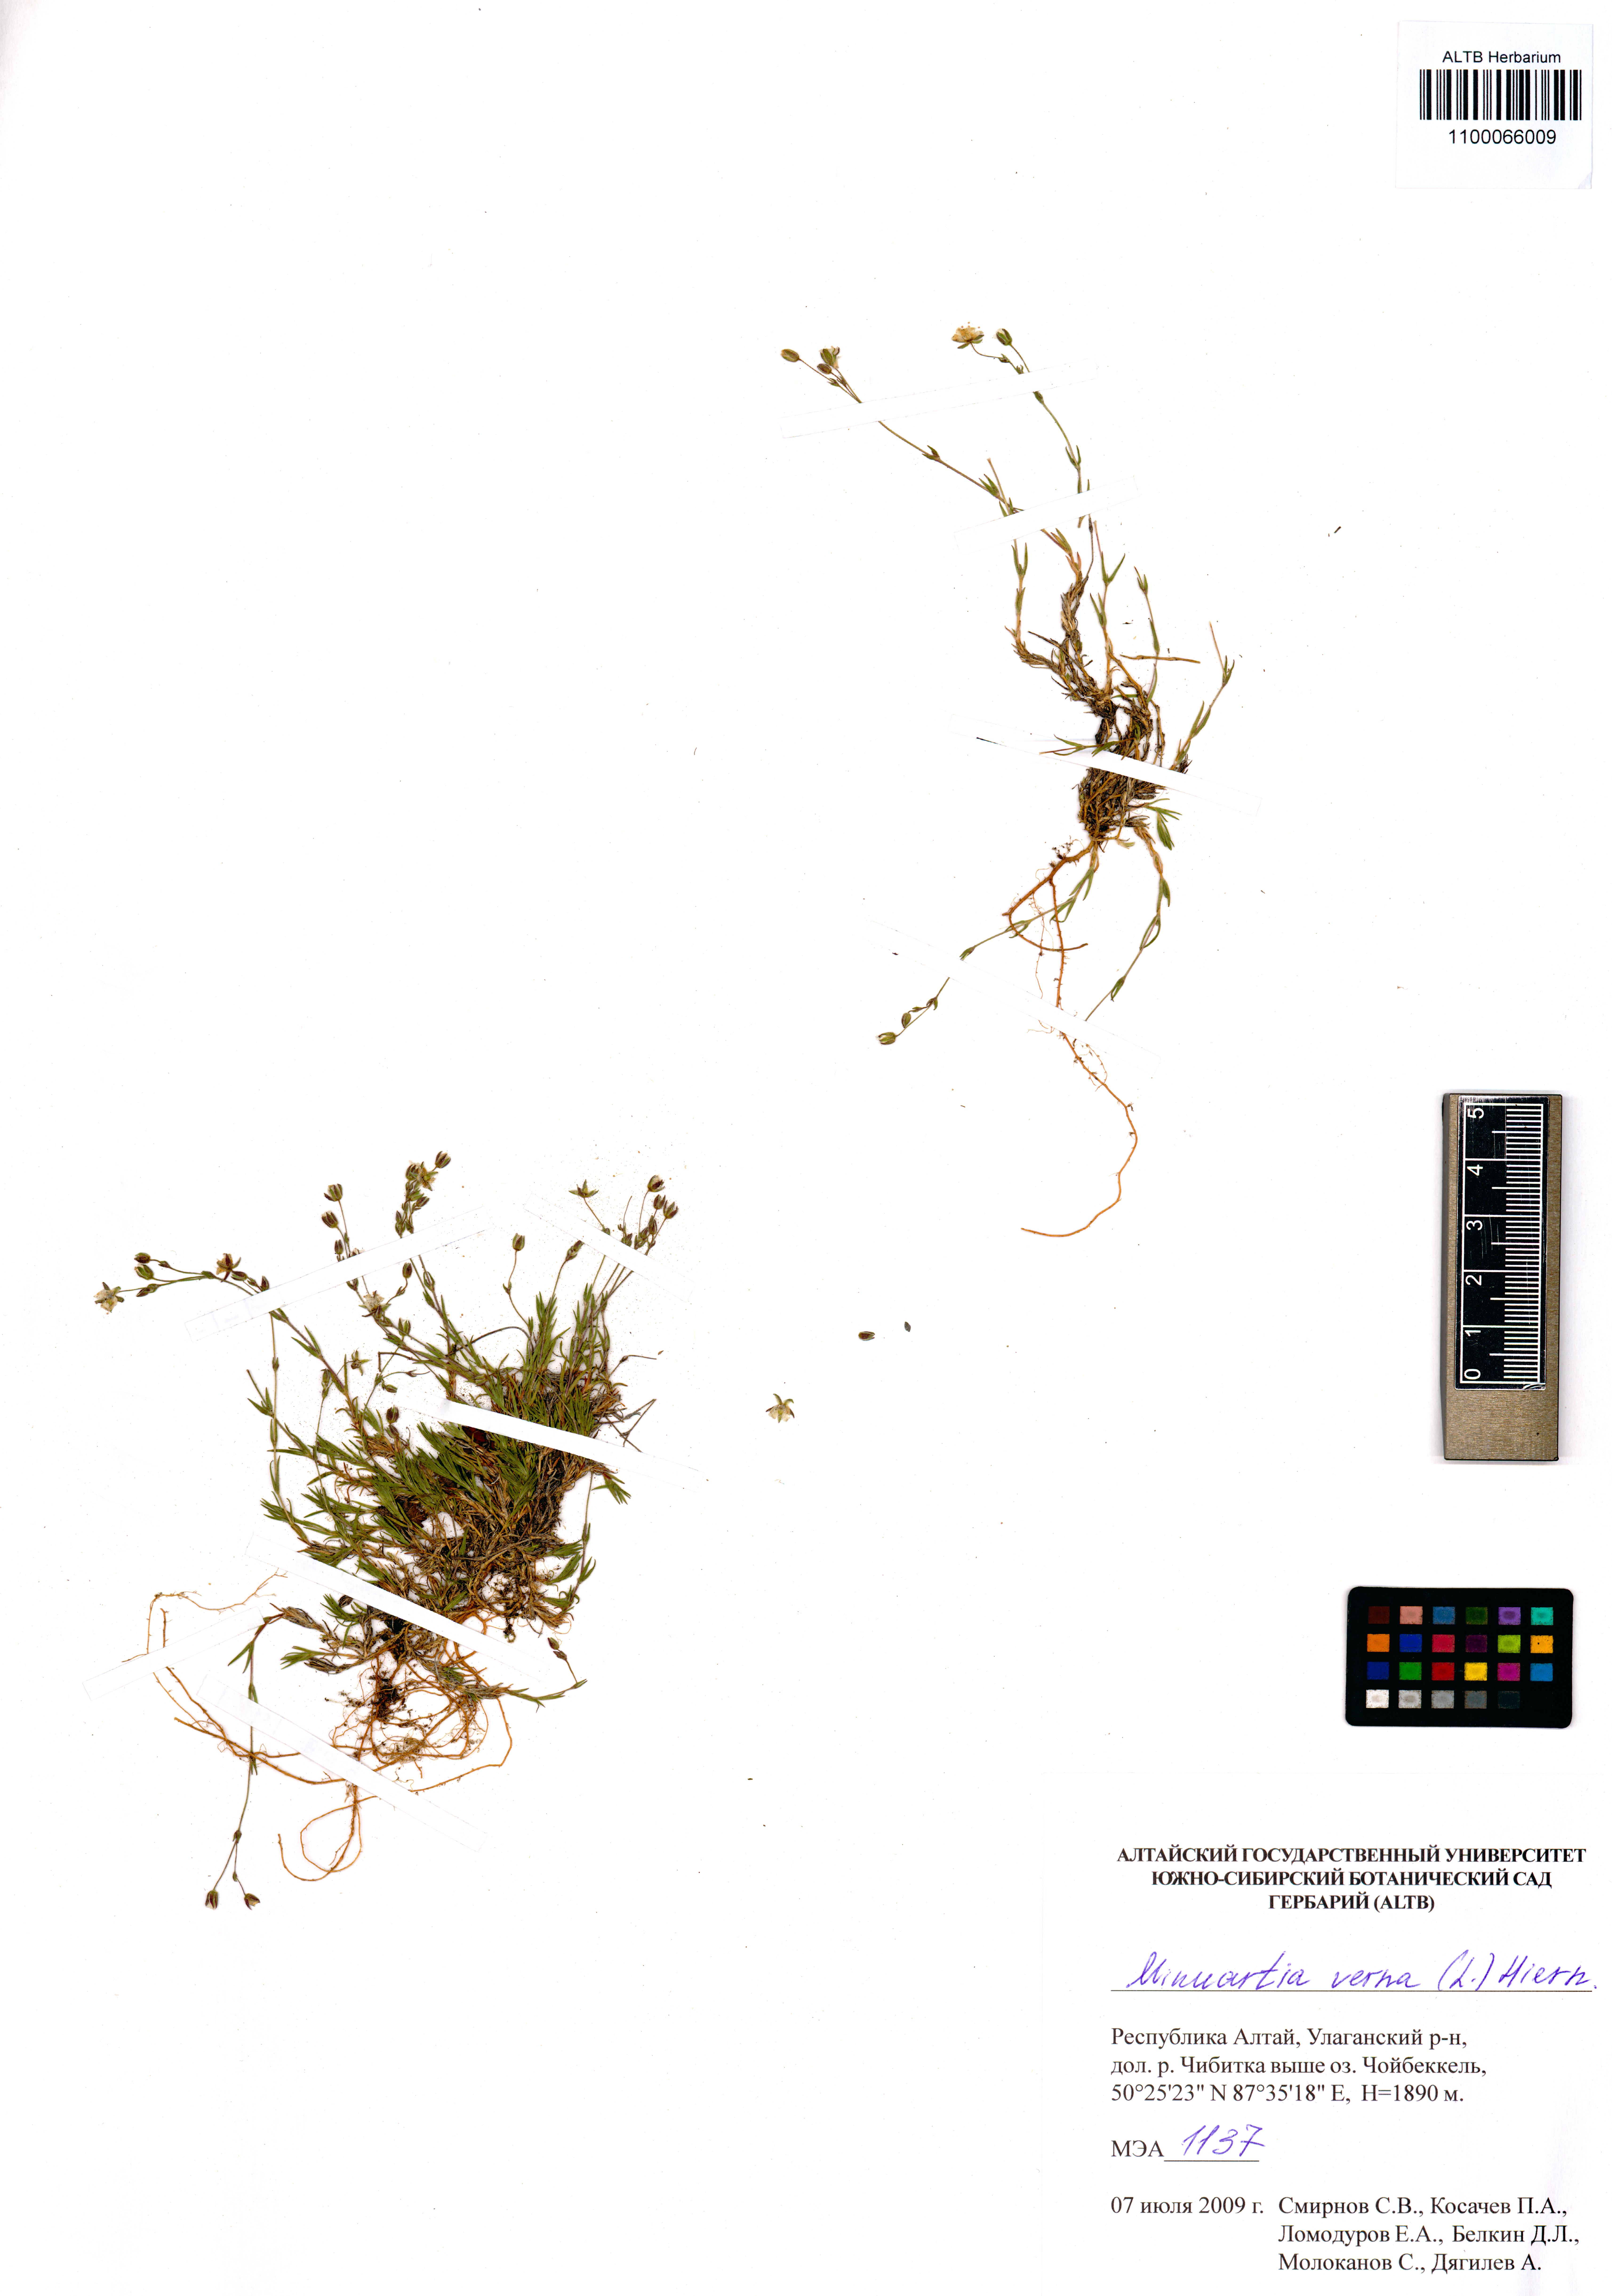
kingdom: Plantae
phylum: Tracheophyta
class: Magnoliopsida
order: Caryophyllales
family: Caryophyllaceae
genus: Sabulina
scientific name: Sabulina verna
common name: Spring sandwort
